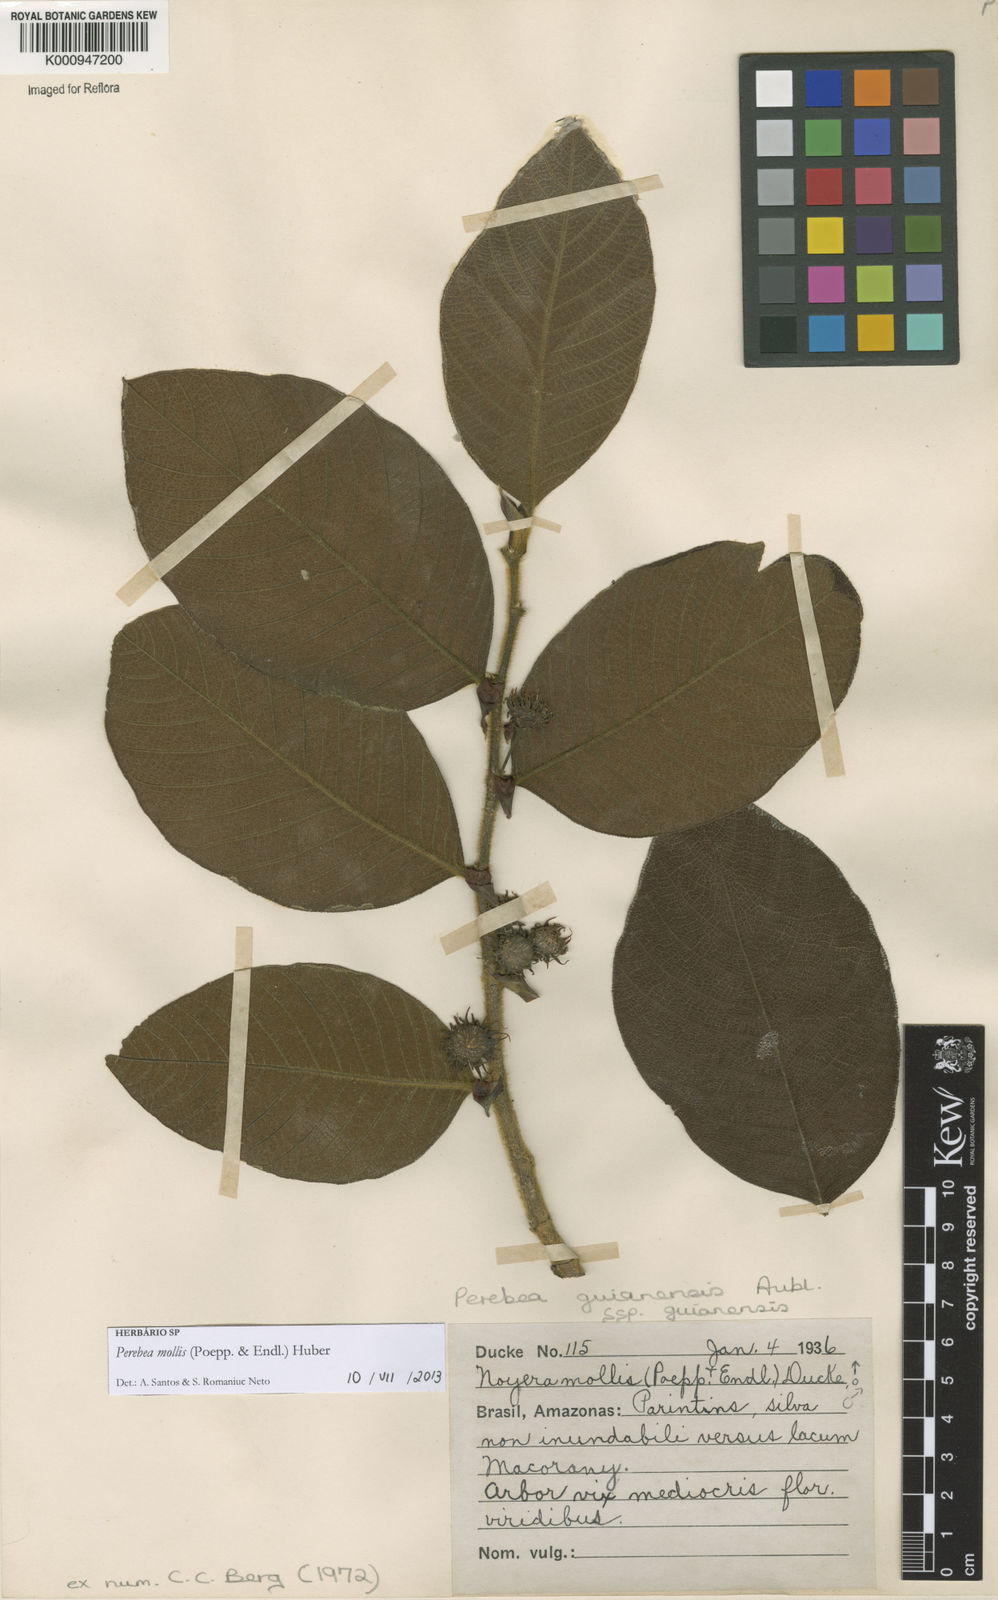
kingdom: Plantae
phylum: Tracheophyta
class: Magnoliopsida
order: Rosales
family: Moraceae
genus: Perebea
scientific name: Perebea mollis
